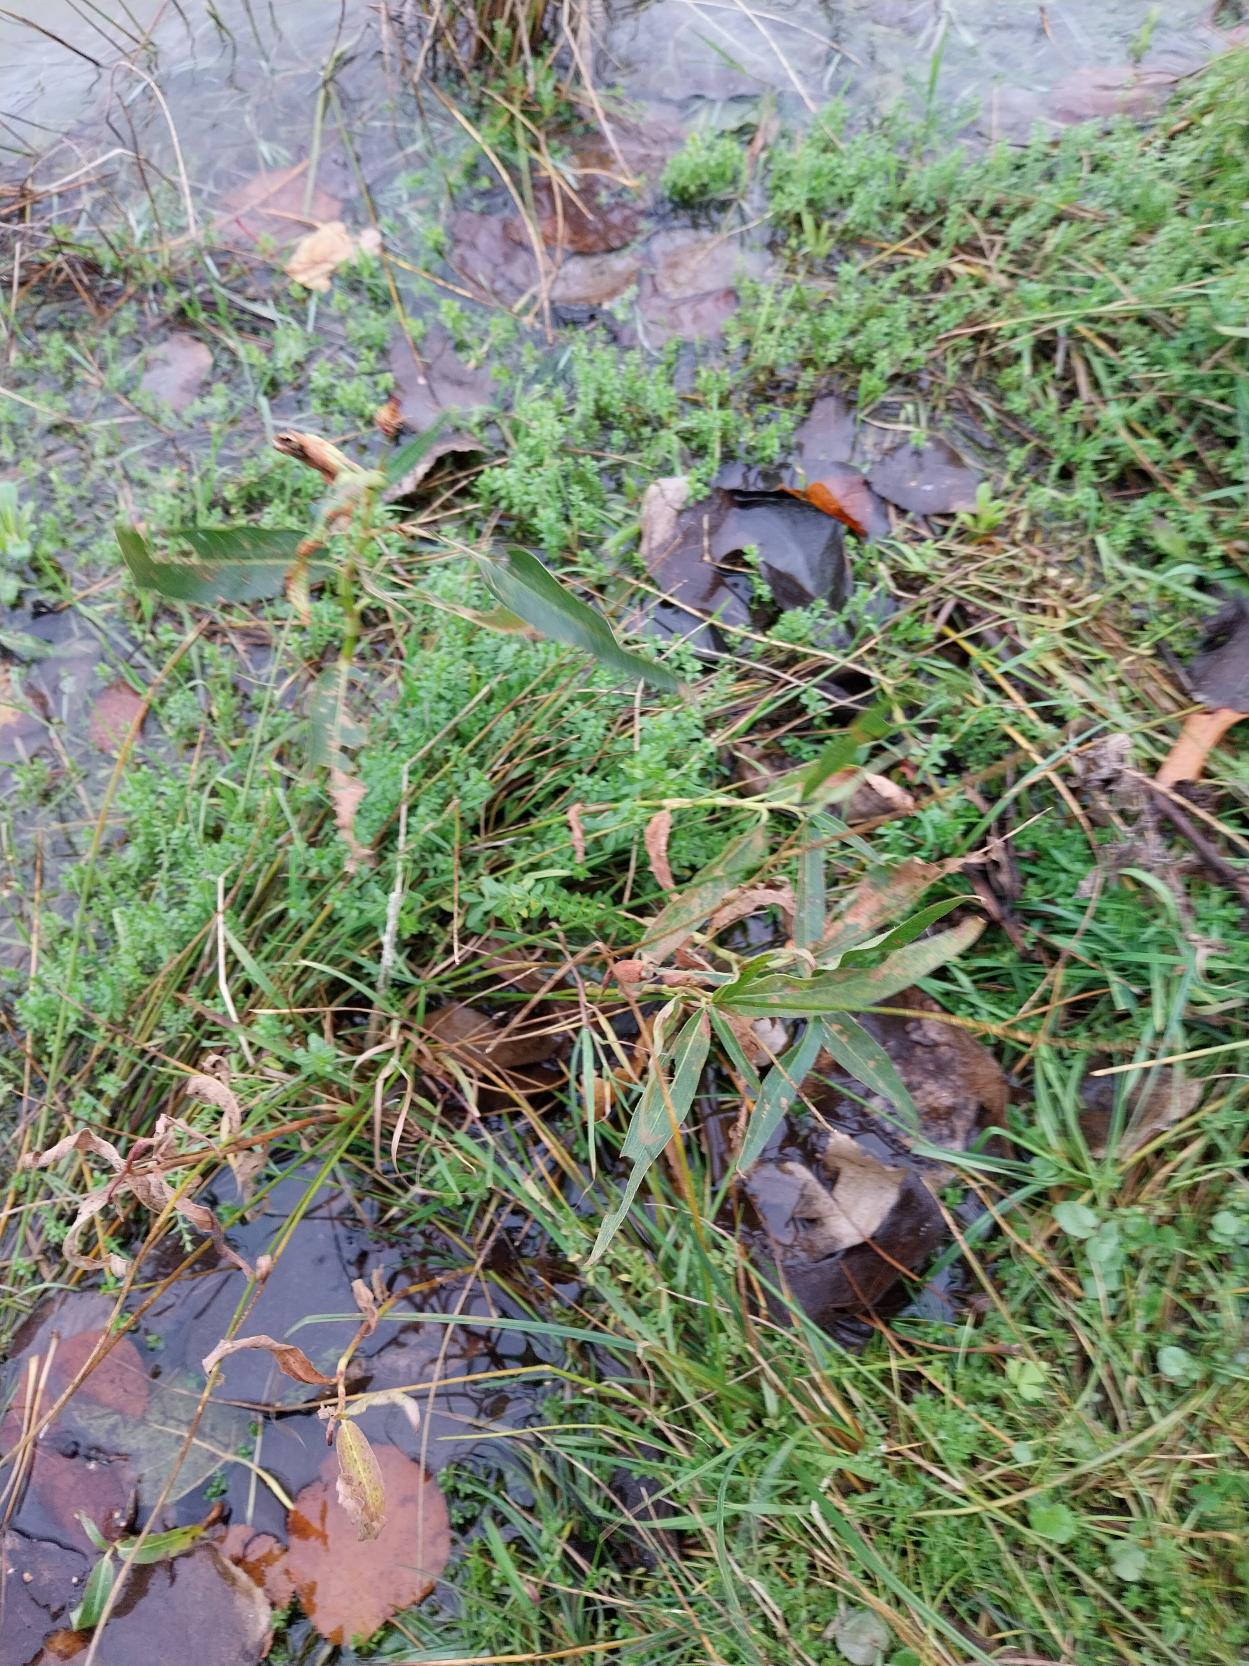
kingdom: Plantae
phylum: Tracheophyta
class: Magnoliopsida
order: Caryophyllales
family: Polygonaceae
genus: Persicaria
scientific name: Persicaria amphibia
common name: Vand-pileurt
